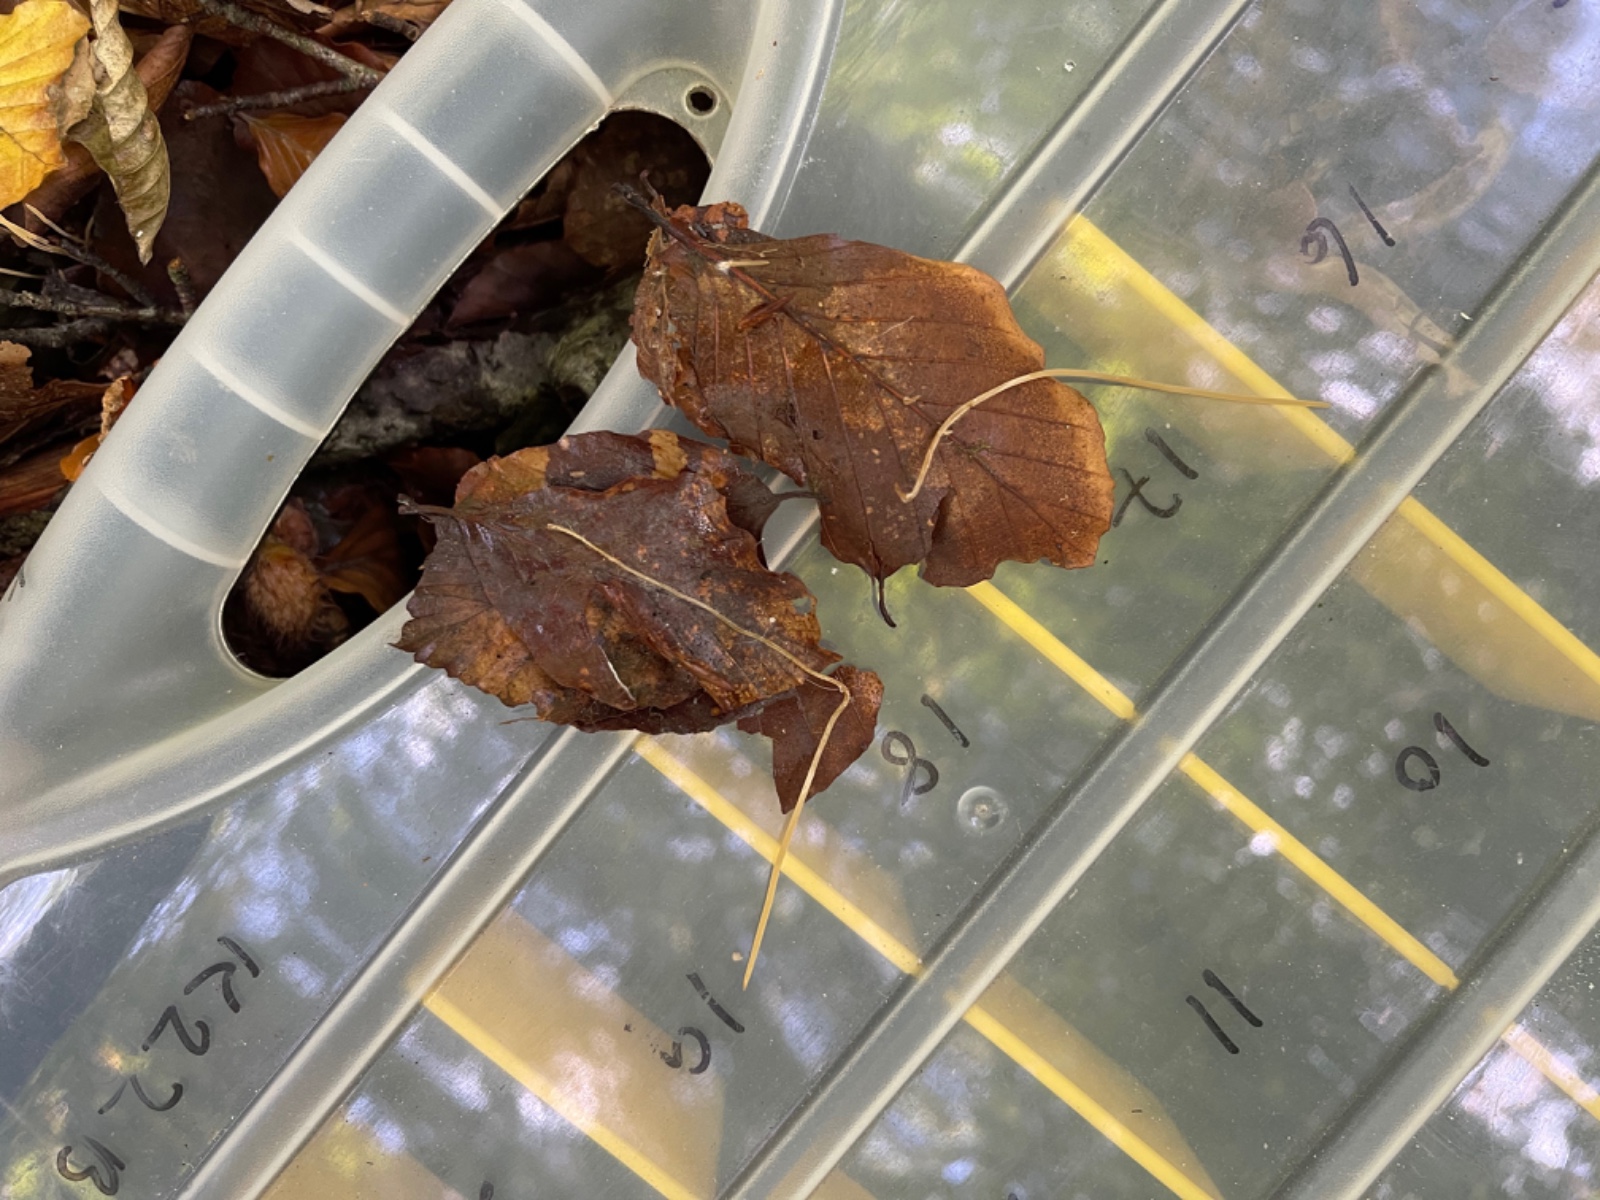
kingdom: Fungi
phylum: Basidiomycota
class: Agaricomycetes
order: Agaricales
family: Typhulaceae
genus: Typhula
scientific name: Typhula juncea
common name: trådagtig rørkølle
